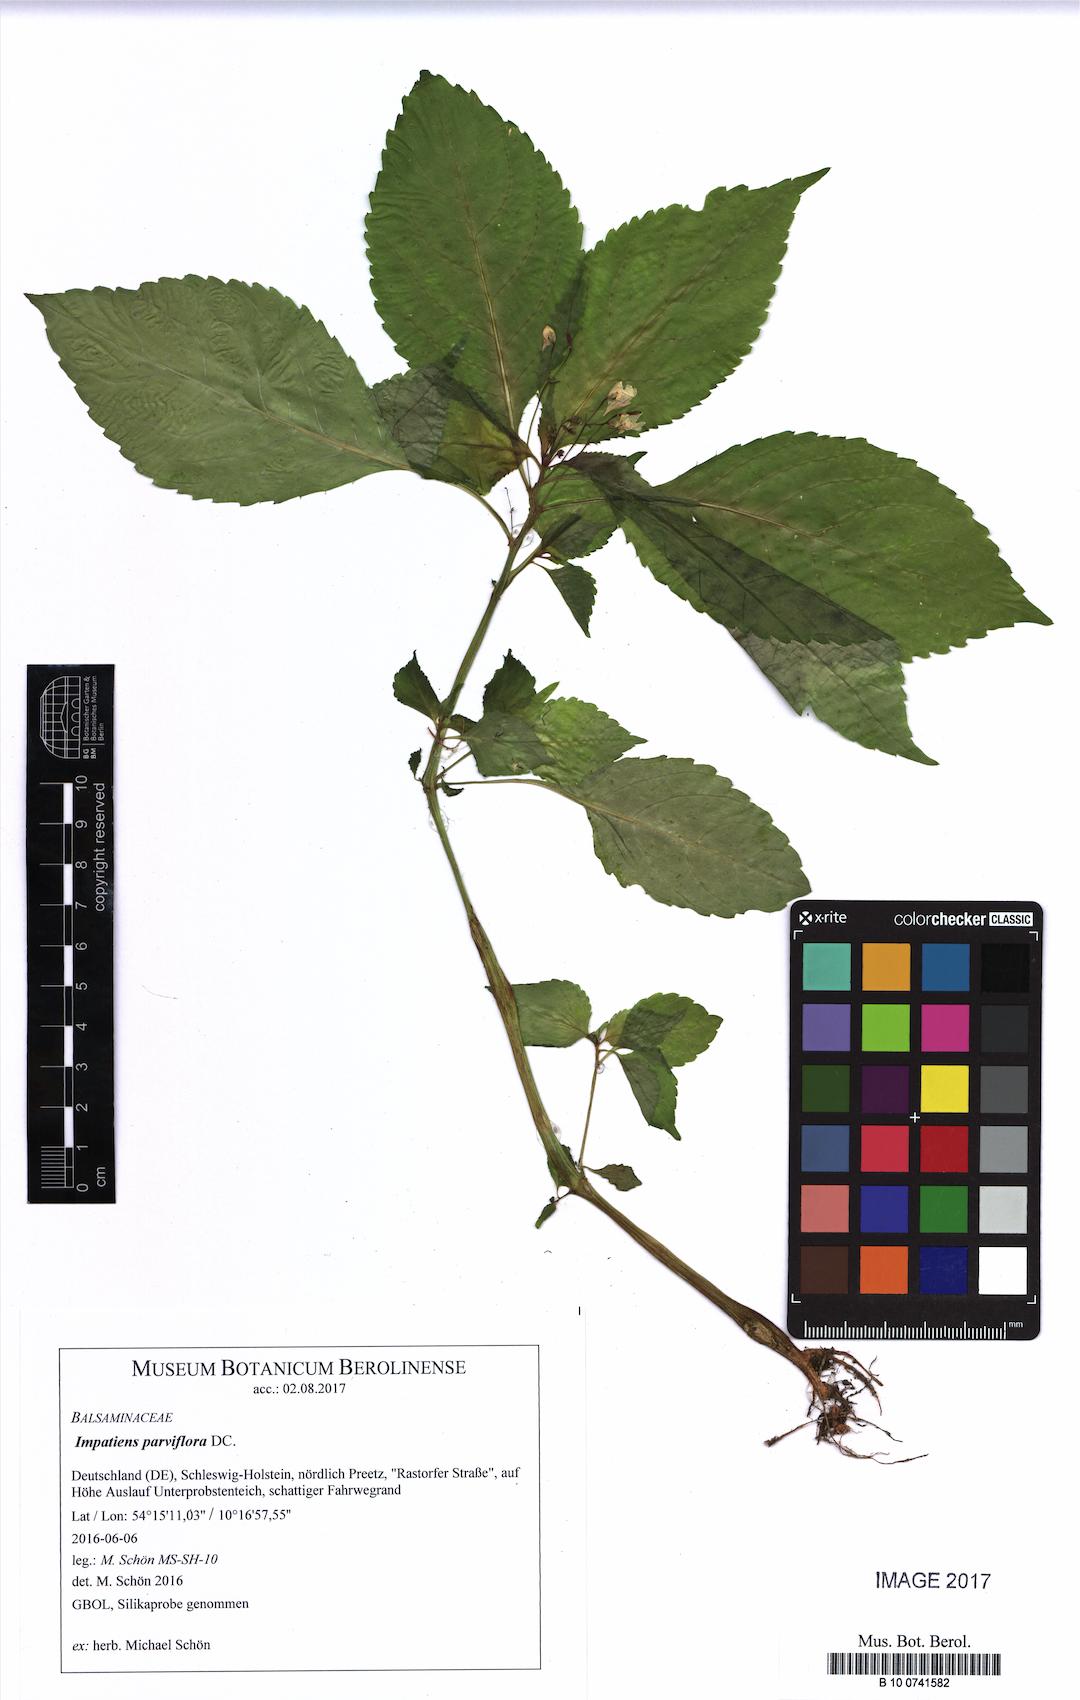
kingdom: Plantae
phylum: Tracheophyta
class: Magnoliopsida
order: Ericales
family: Balsaminaceae
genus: Impatiens
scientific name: Impatiens parviflora
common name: Small balsam
